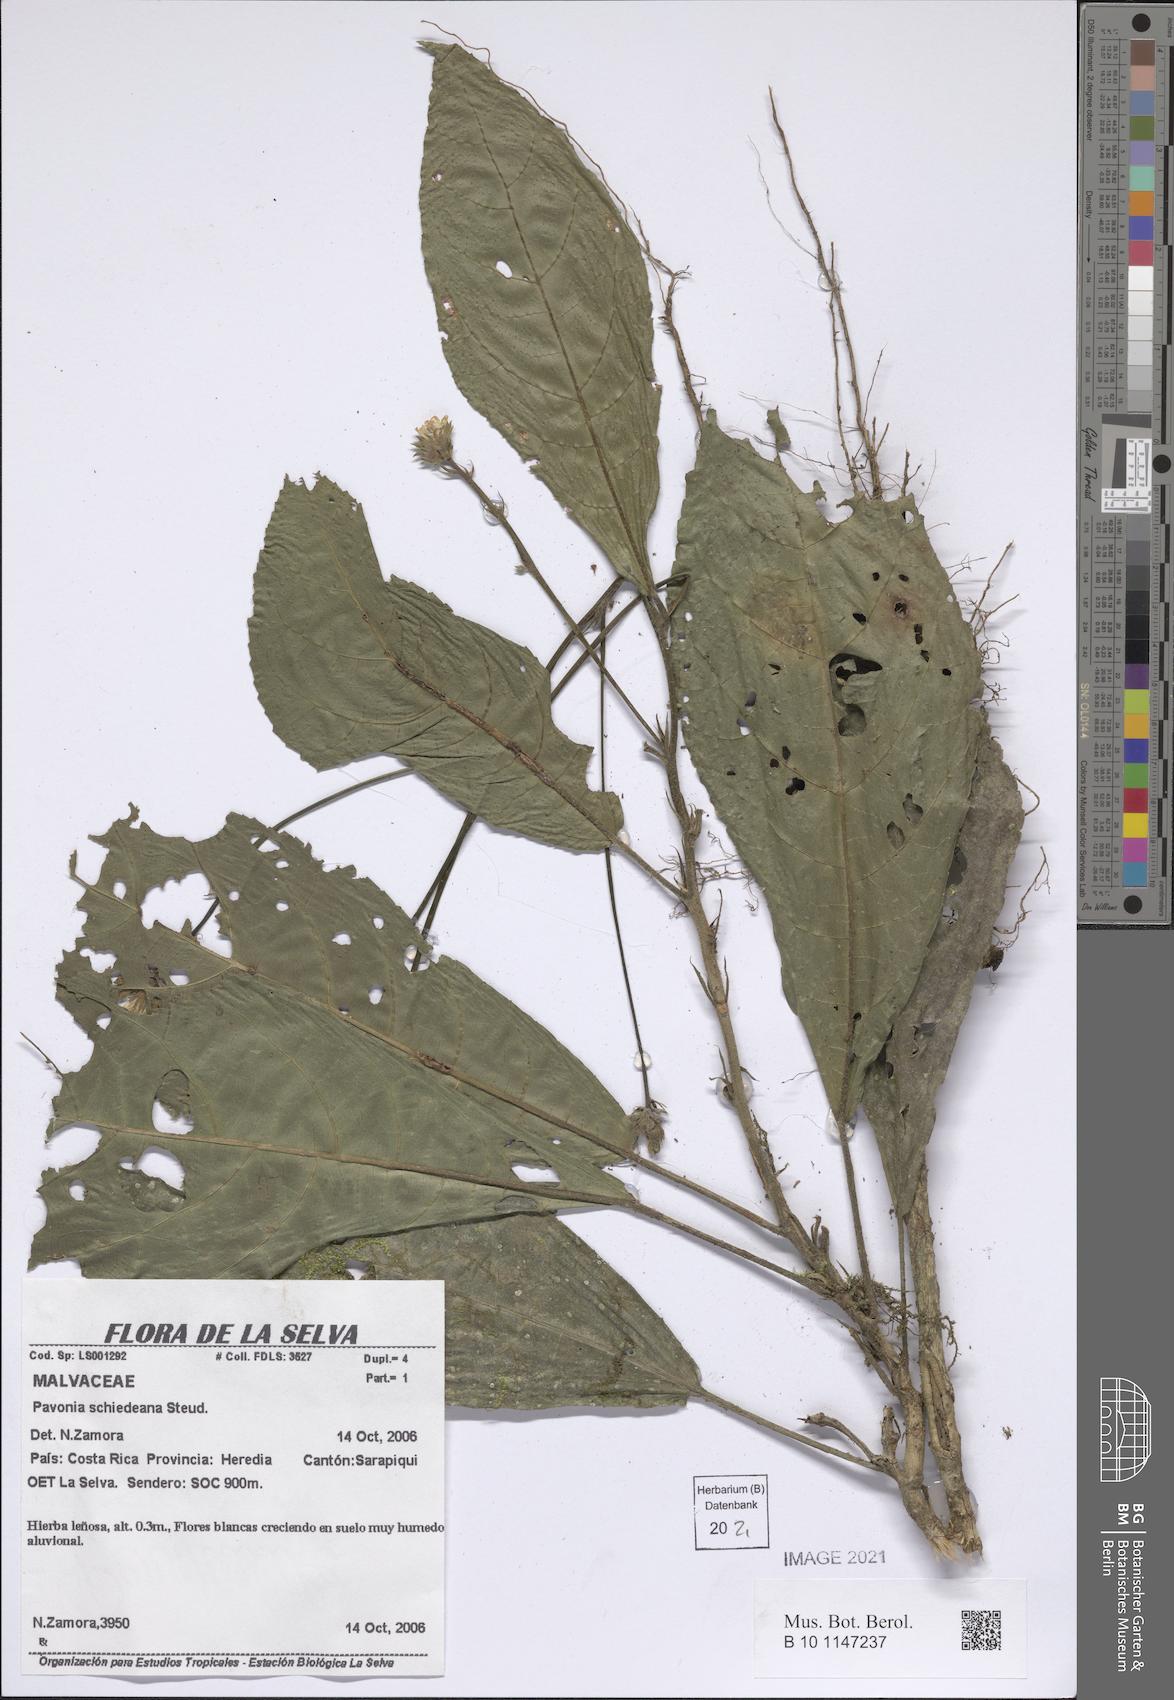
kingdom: Plantae
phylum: Tracheophyta
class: Magnoliopsida
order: Malvales
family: Malvaceae
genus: Pavonia
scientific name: Pavonia schiedeana
